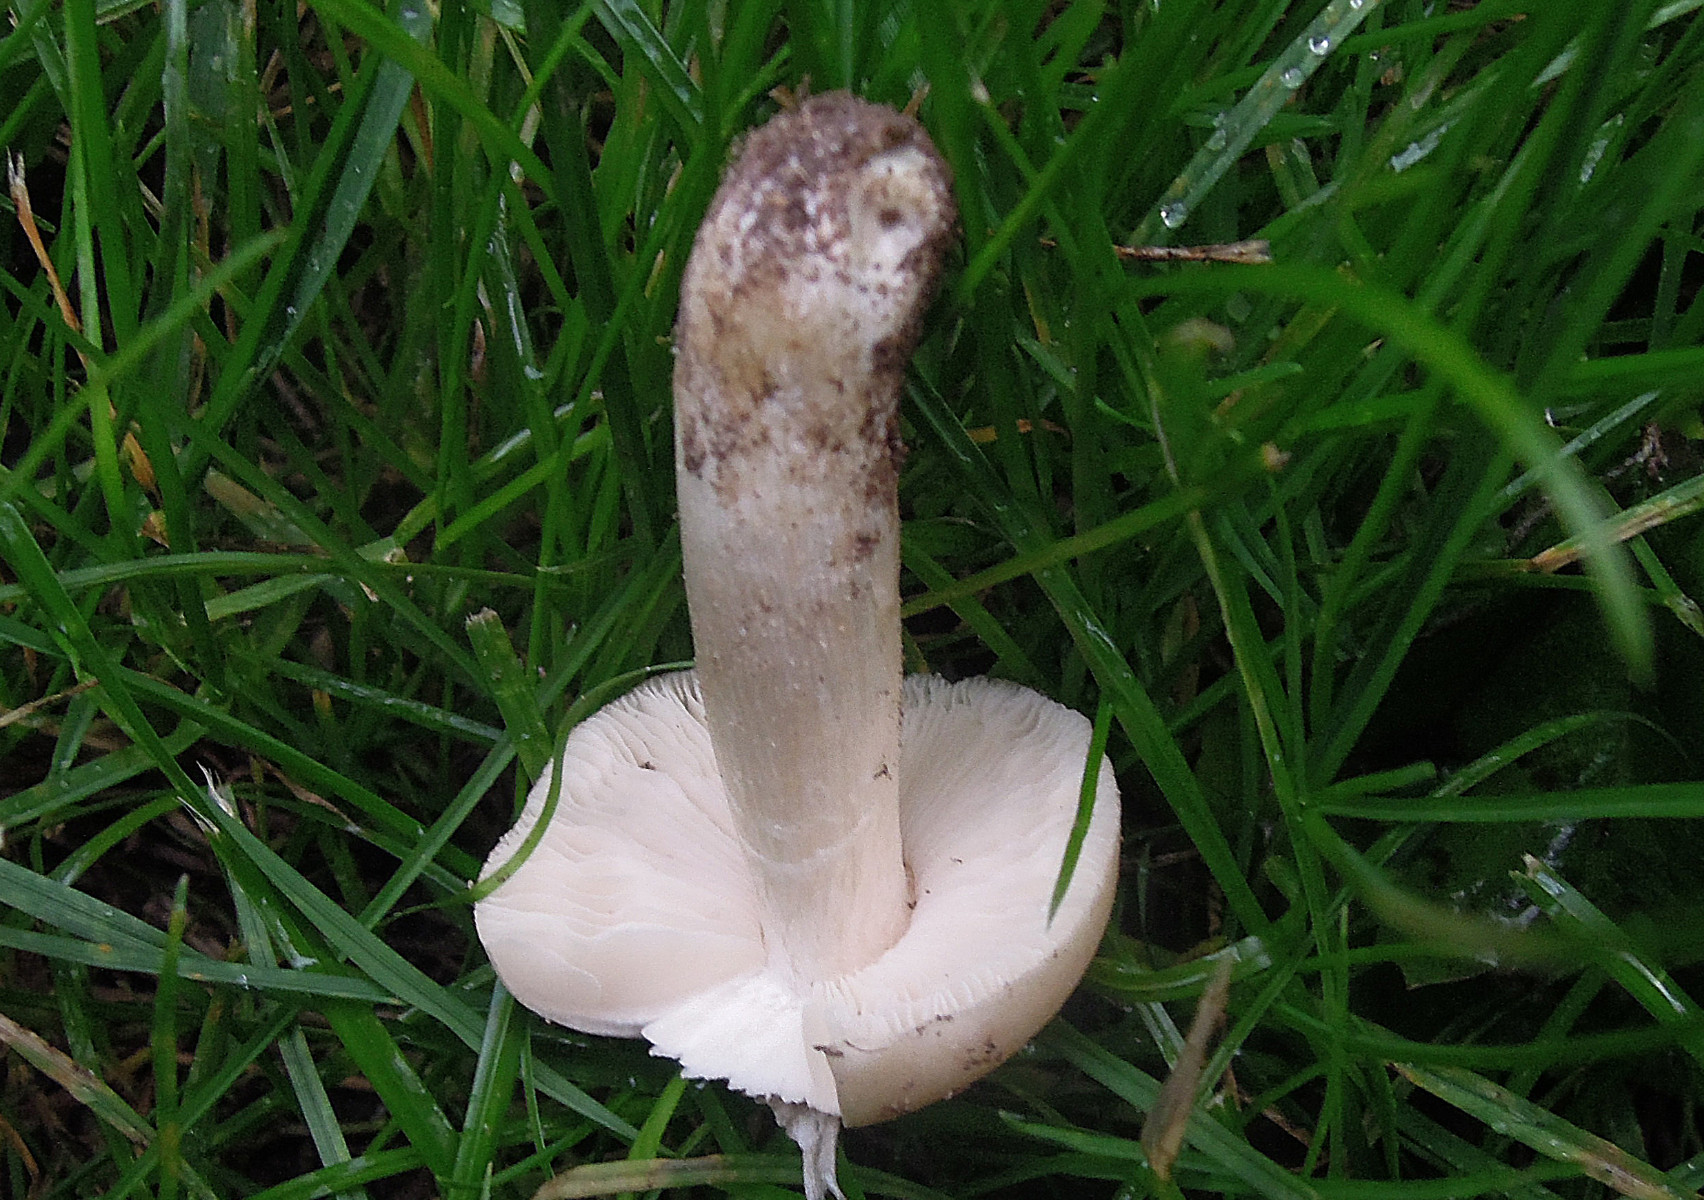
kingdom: Fungi
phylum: Basidiomycota
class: Agaricomycetes
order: Agaricales
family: Entolomataceae
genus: Entoloma
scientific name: Entoloma prunuloides
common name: mel-rødblad
